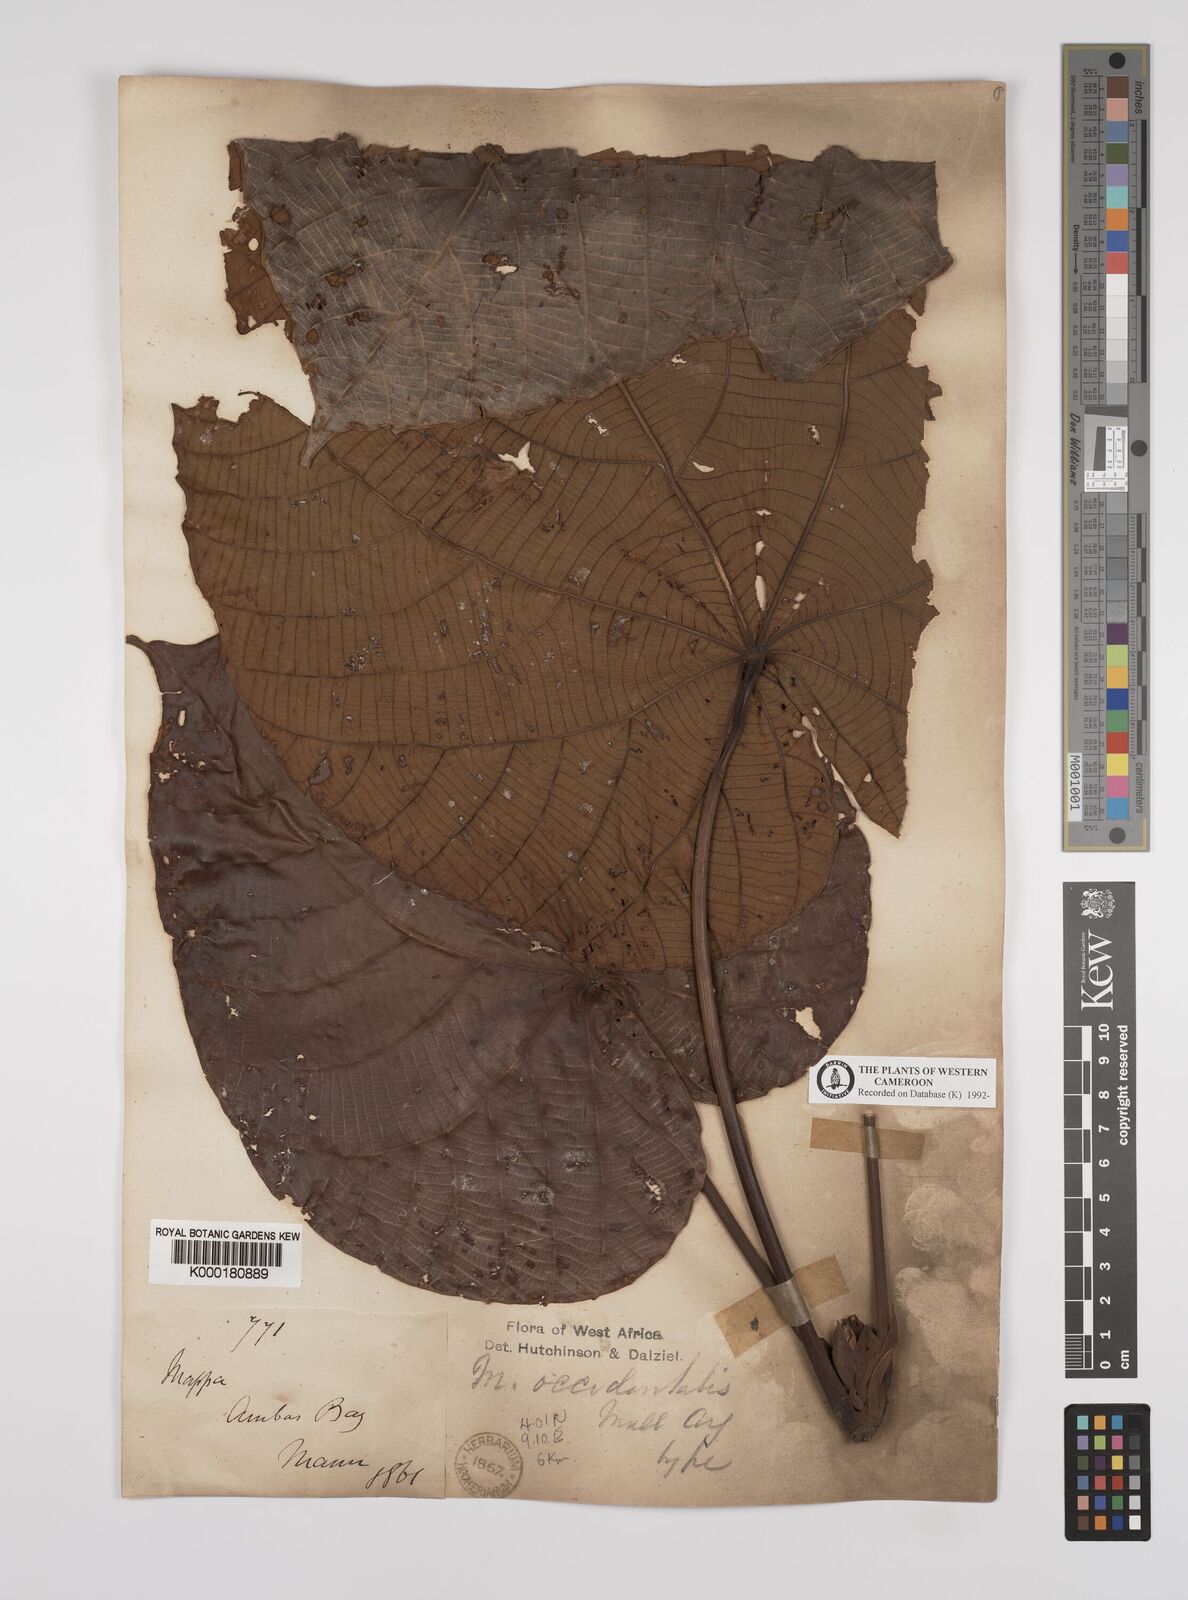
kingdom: Plantae
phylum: Tracheophyta
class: Magnoliopsida
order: Malpighiales
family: Euphorbiaceae
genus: Macaranga
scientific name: Macaranga
